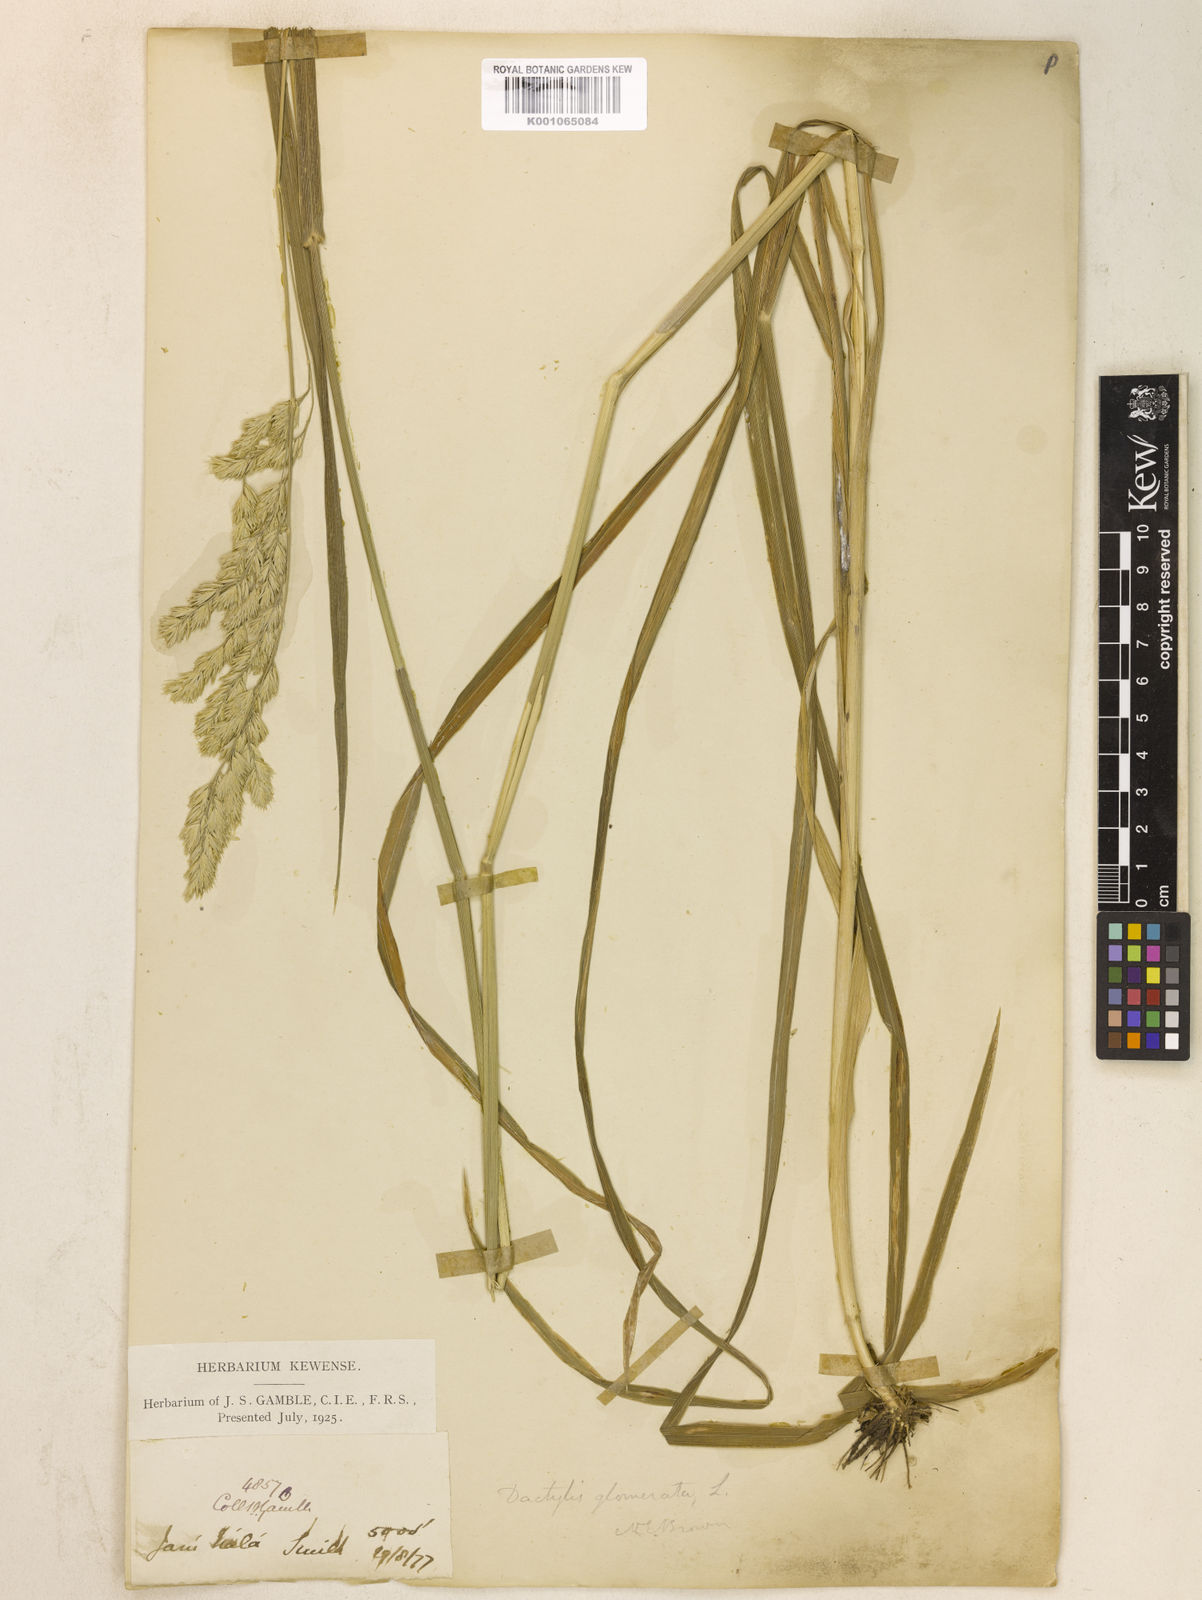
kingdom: Plantae
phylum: Tracheophyta
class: Liliopsida
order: Poales
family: Poaceae
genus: Dactylis
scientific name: Dactylis glomerata
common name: Orchardgrass
